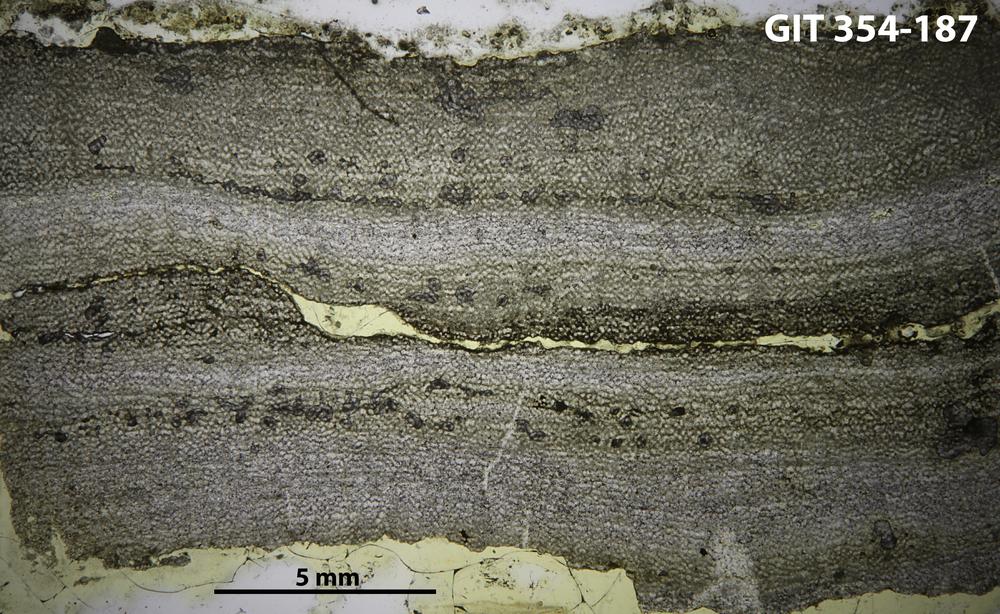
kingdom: Animalia
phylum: Porifera
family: Ecclimadictyidae
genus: Ecclimadictyon
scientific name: Ecclimadictyon macrotuberculatum
